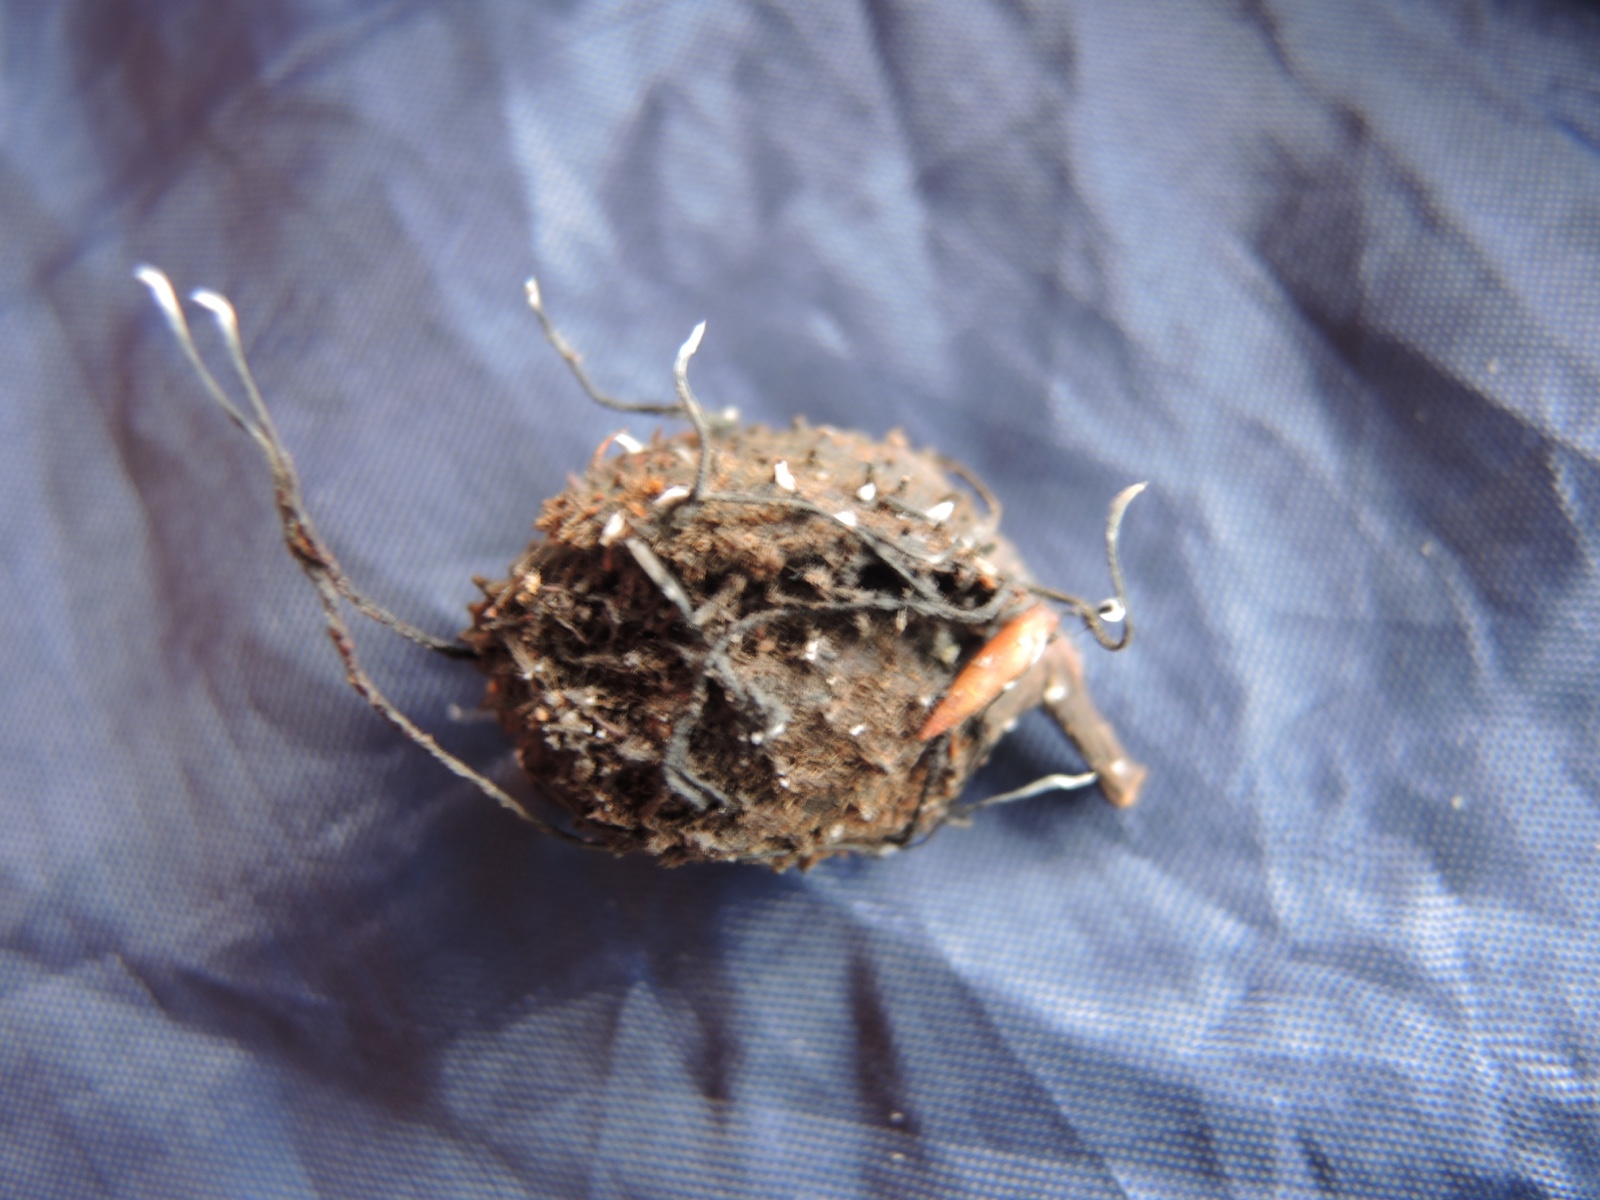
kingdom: Fungi
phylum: Ascomycota
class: Sordariomycetes
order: Xylariales
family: Xylariaceae
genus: Xylaria
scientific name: Xylaria carpophila
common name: bogskål-stødsvamp
